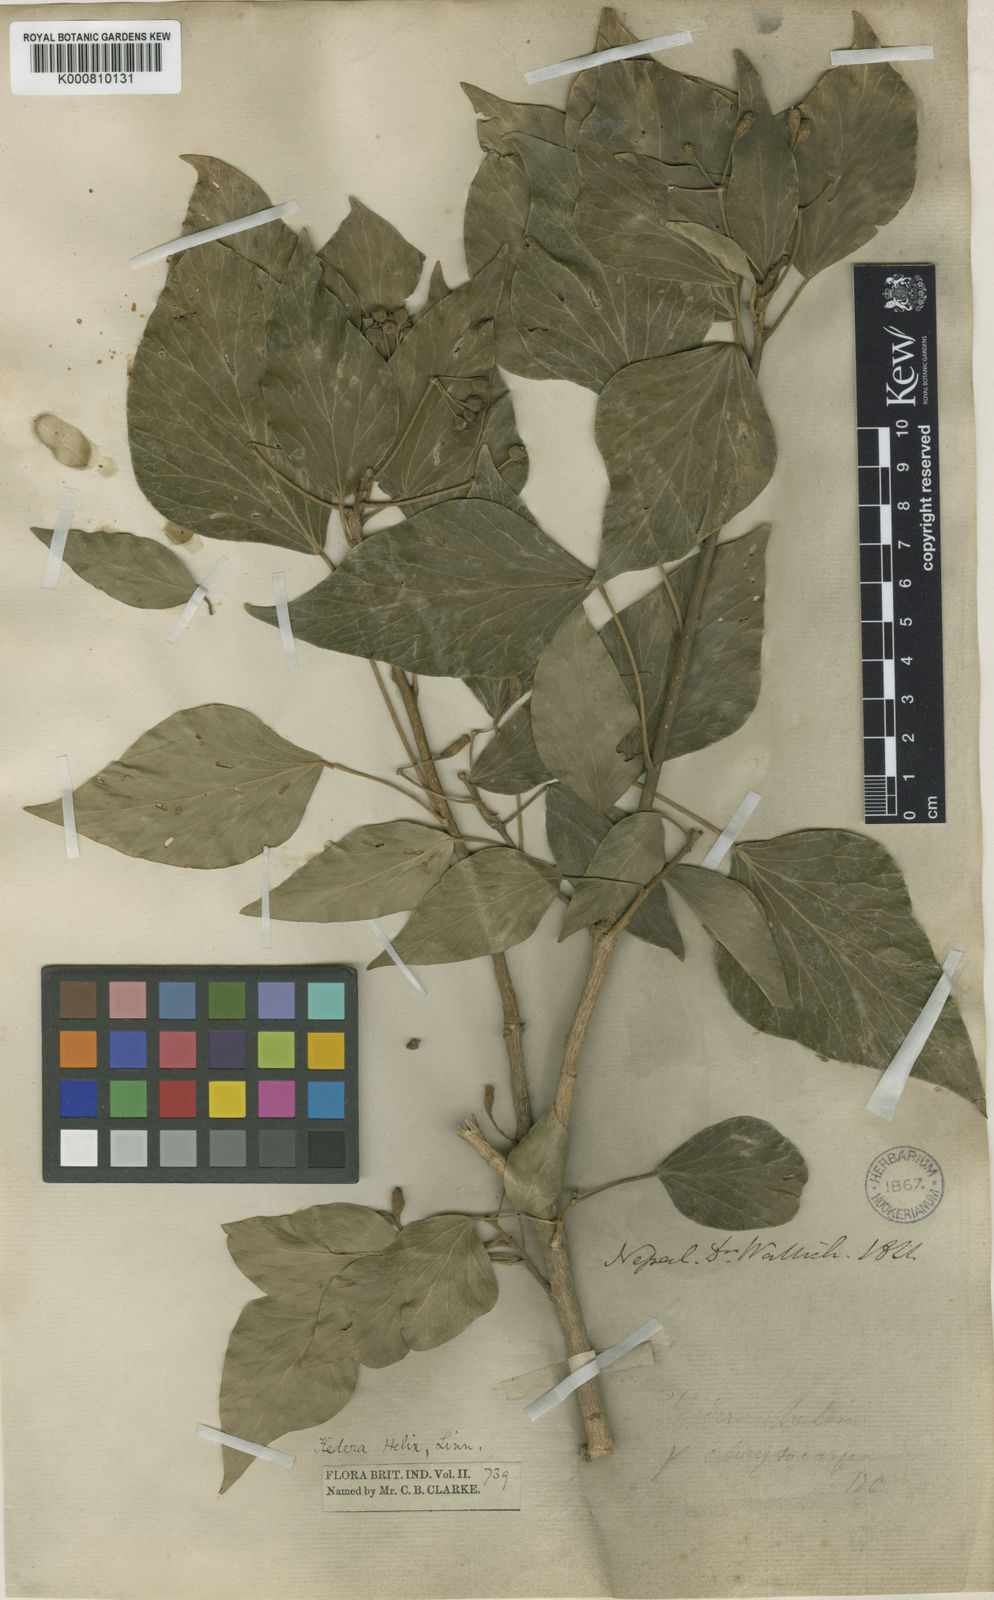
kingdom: Plantae
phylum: Tracheophyta
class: Magnoliopsida
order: Apiales
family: Araliaceae
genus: Hedera
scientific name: Hedera nepalensis
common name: Himalayan ivy
